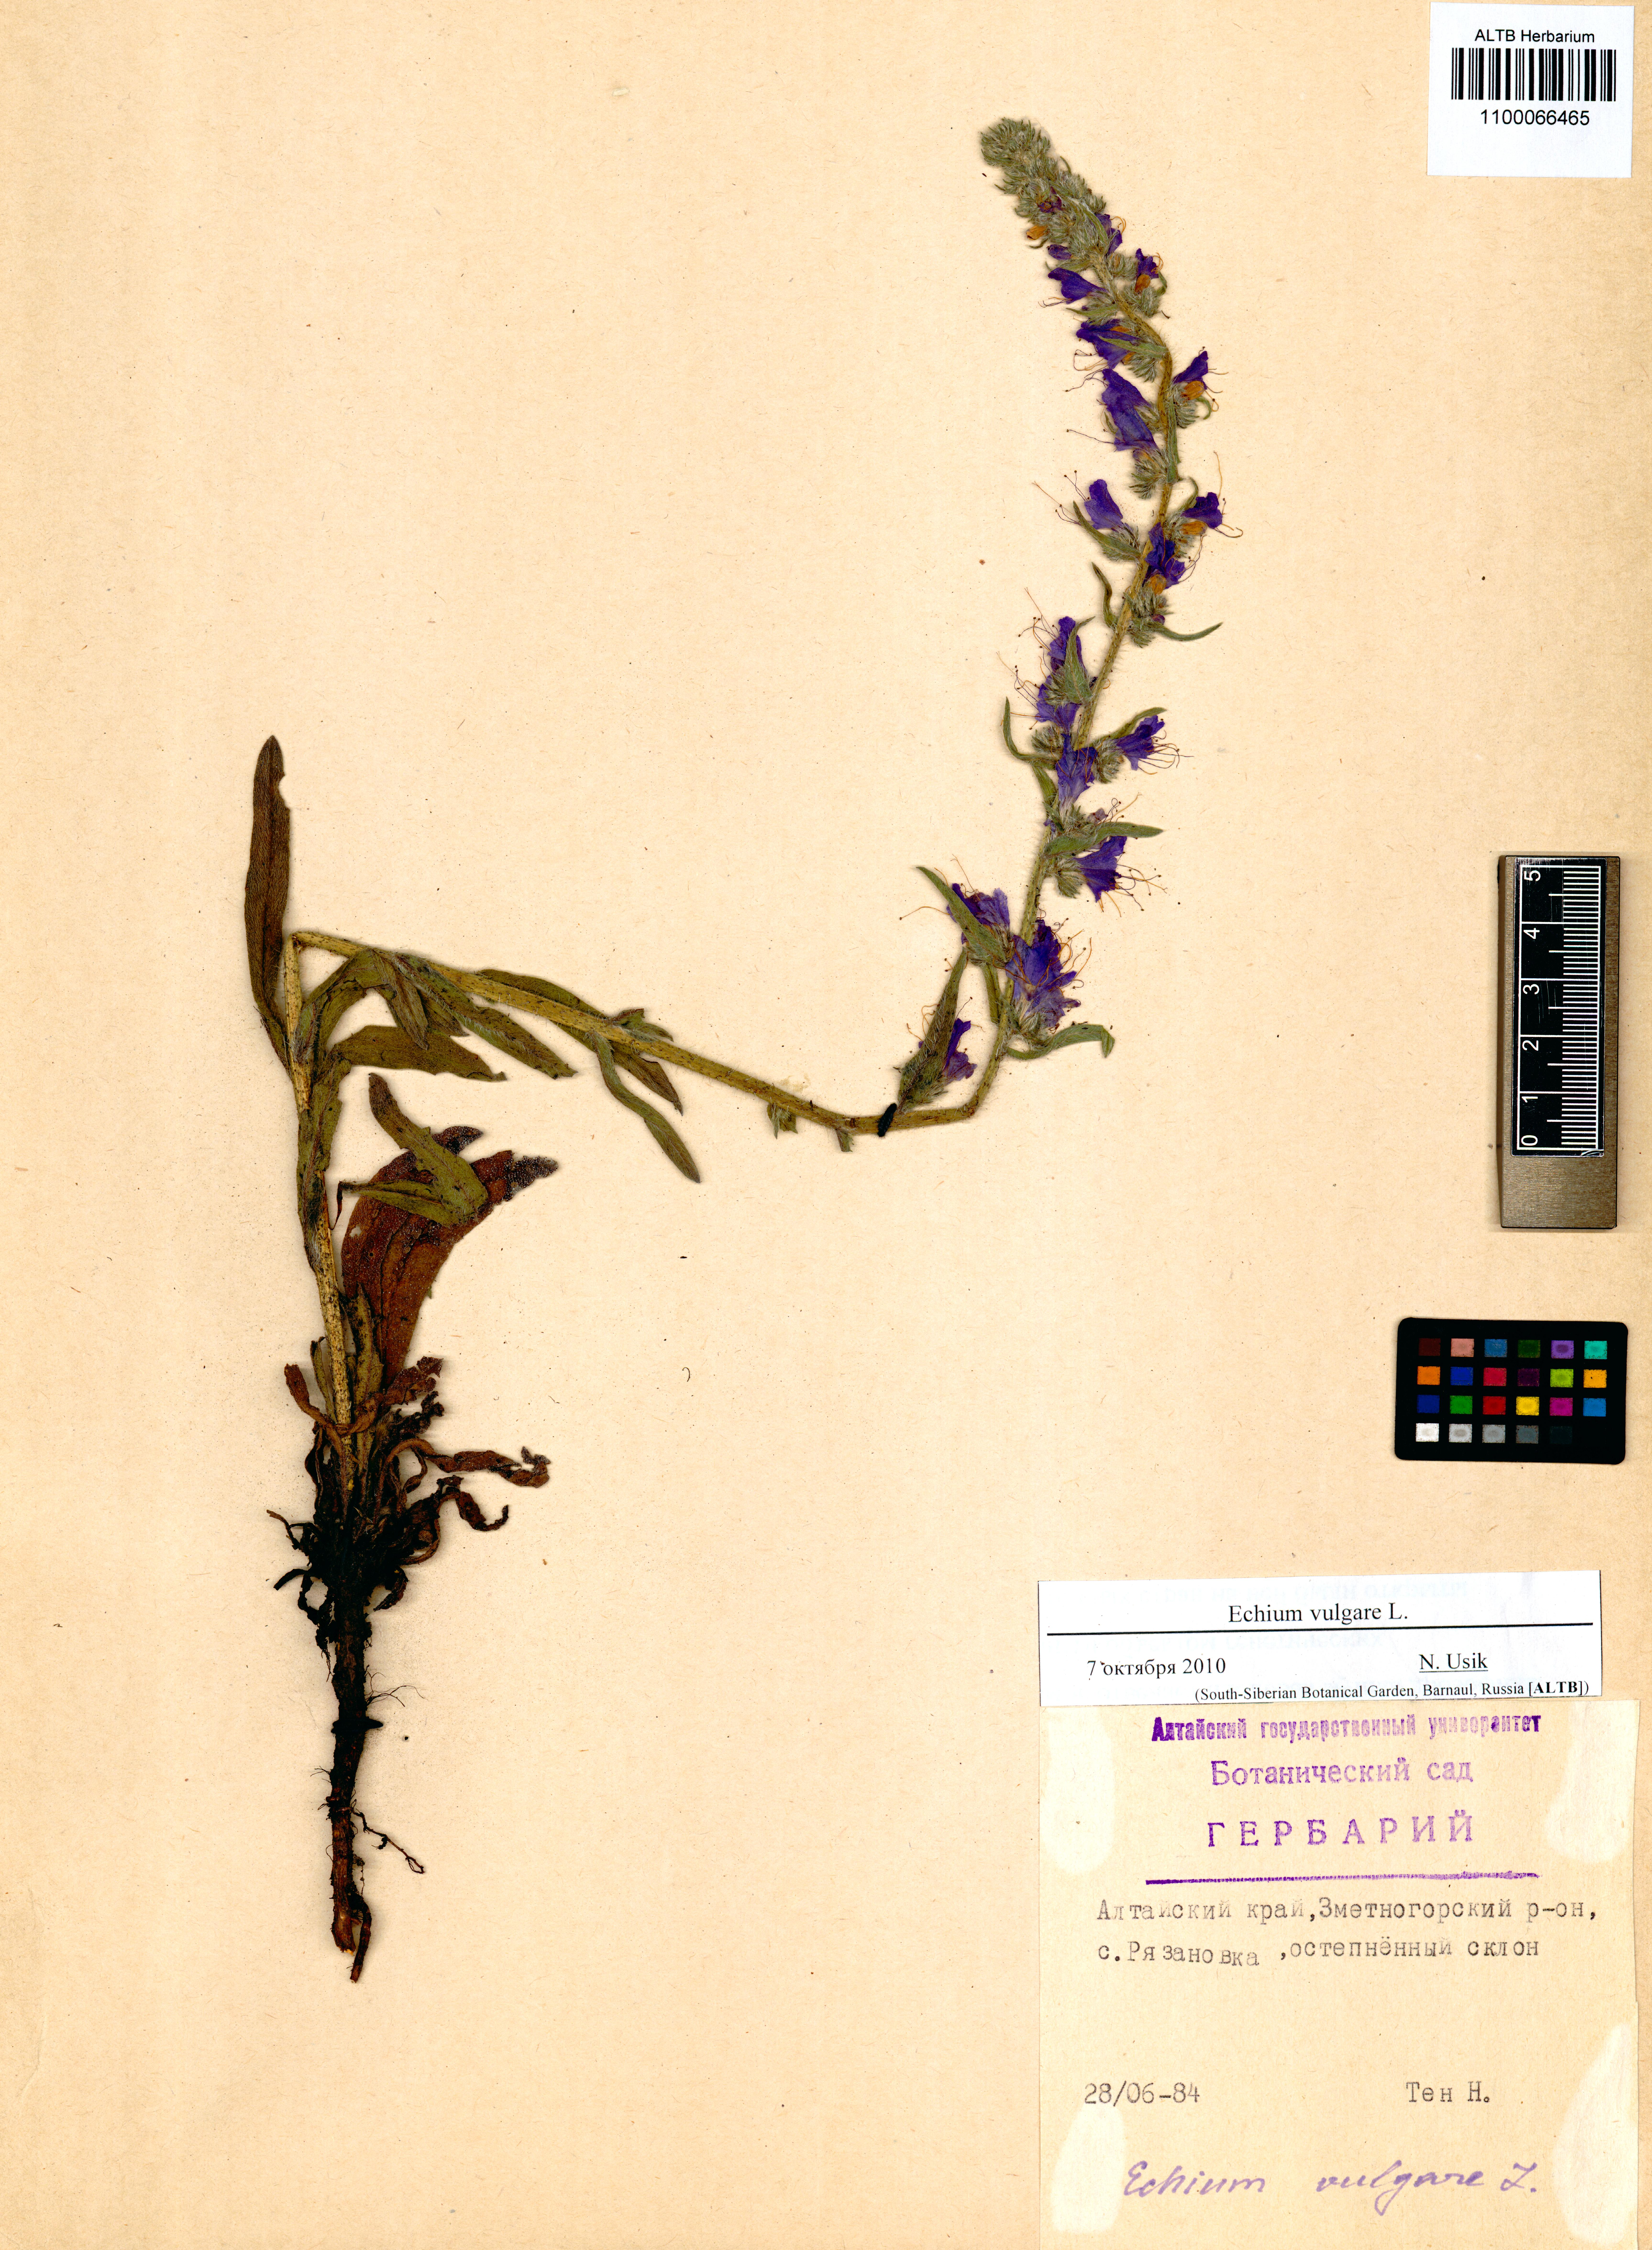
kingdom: Plantae
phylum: Tracheophyta
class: Magnoliopsida
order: Boraginales
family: Boraginaceae
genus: Echium
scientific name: Echium vulgare
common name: Common viper's bugloss
